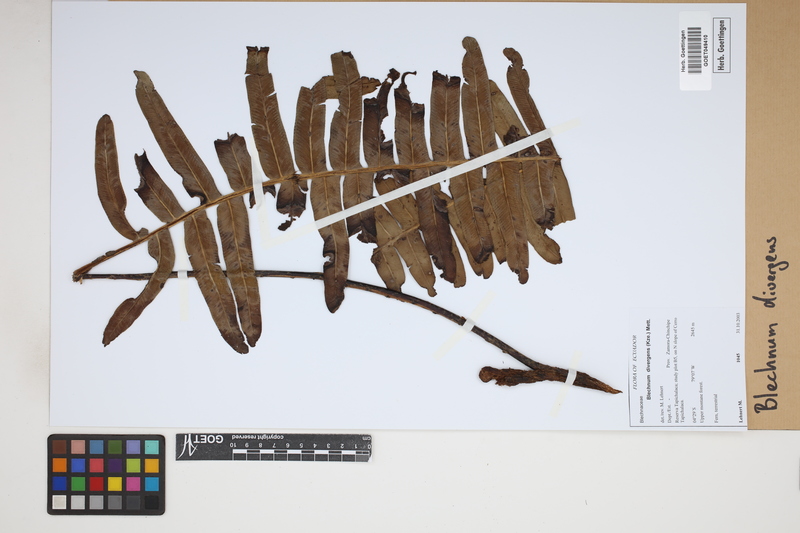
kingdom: Plantae
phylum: Tracheophyta
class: Polypodiopsida
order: Polypodiales
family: Blechnaceae
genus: Austroblechnum
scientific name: Austroblechnum divergens
